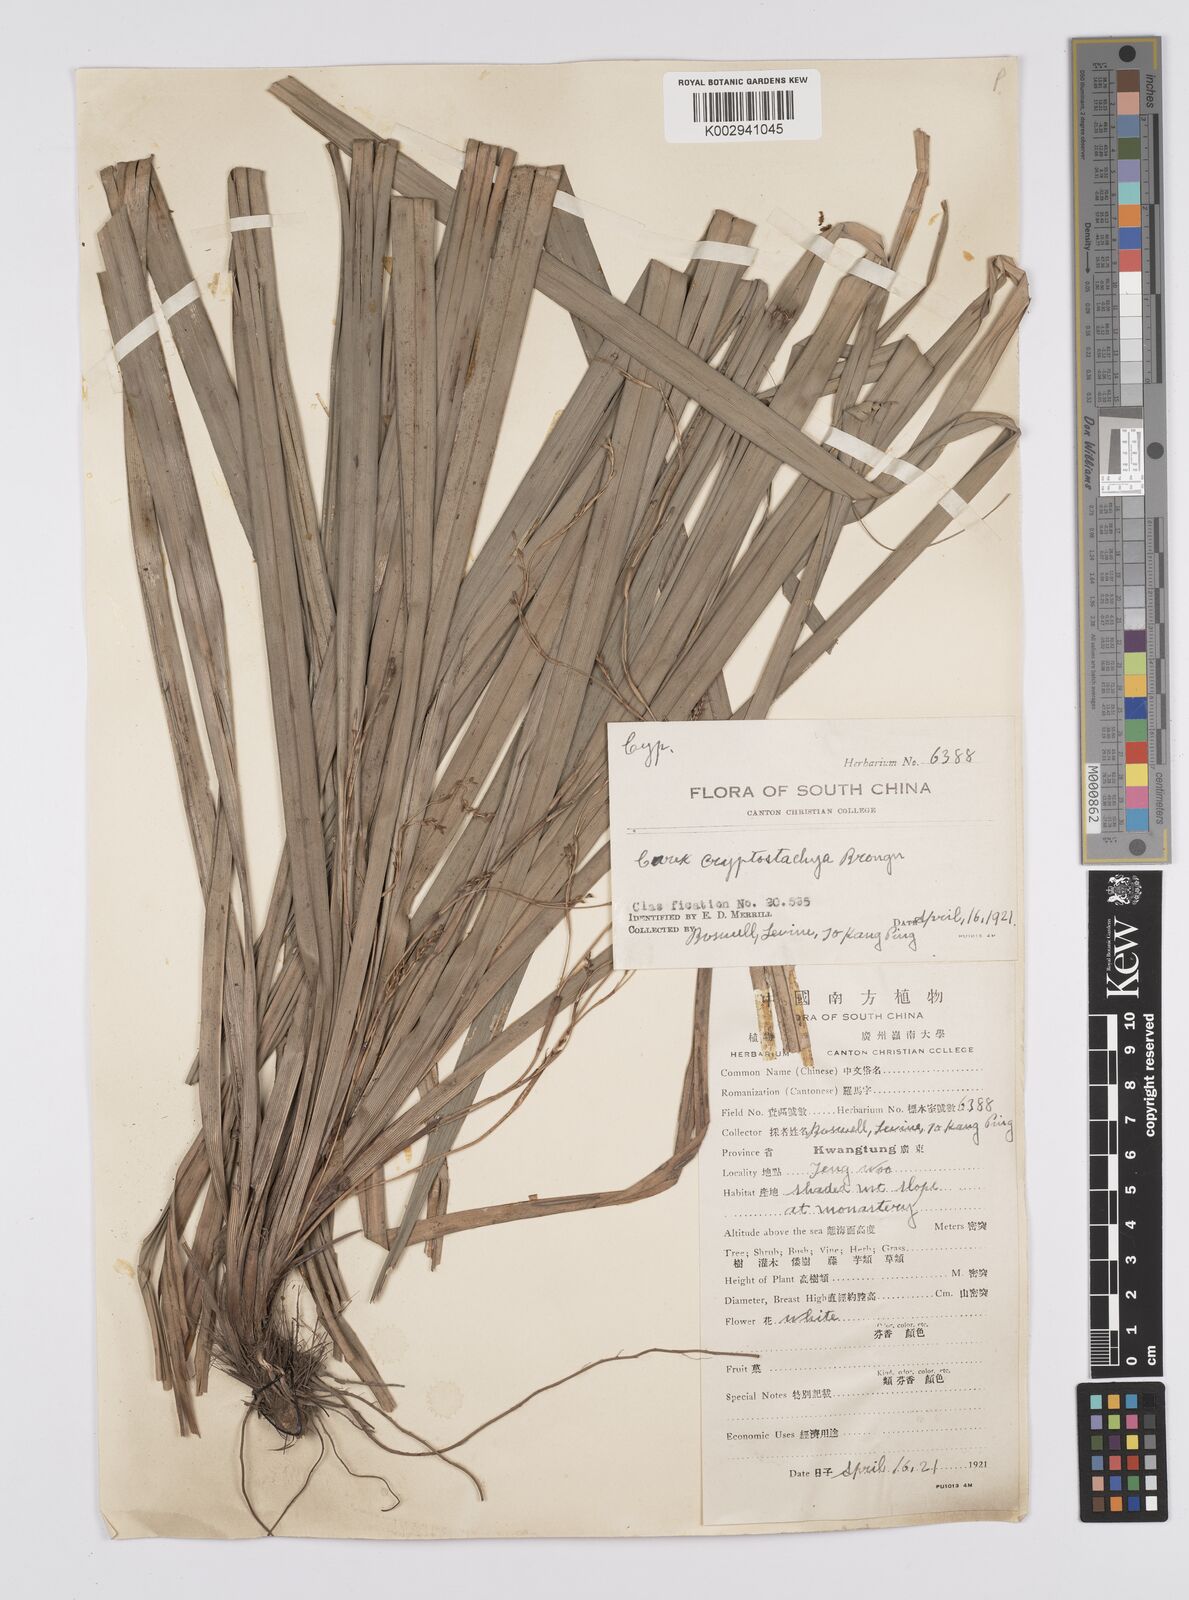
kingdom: Plantae
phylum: Tracheophyta
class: Liliopsida
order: Poales
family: Cyperaceae
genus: Carex
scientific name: Carex cryptostachys
